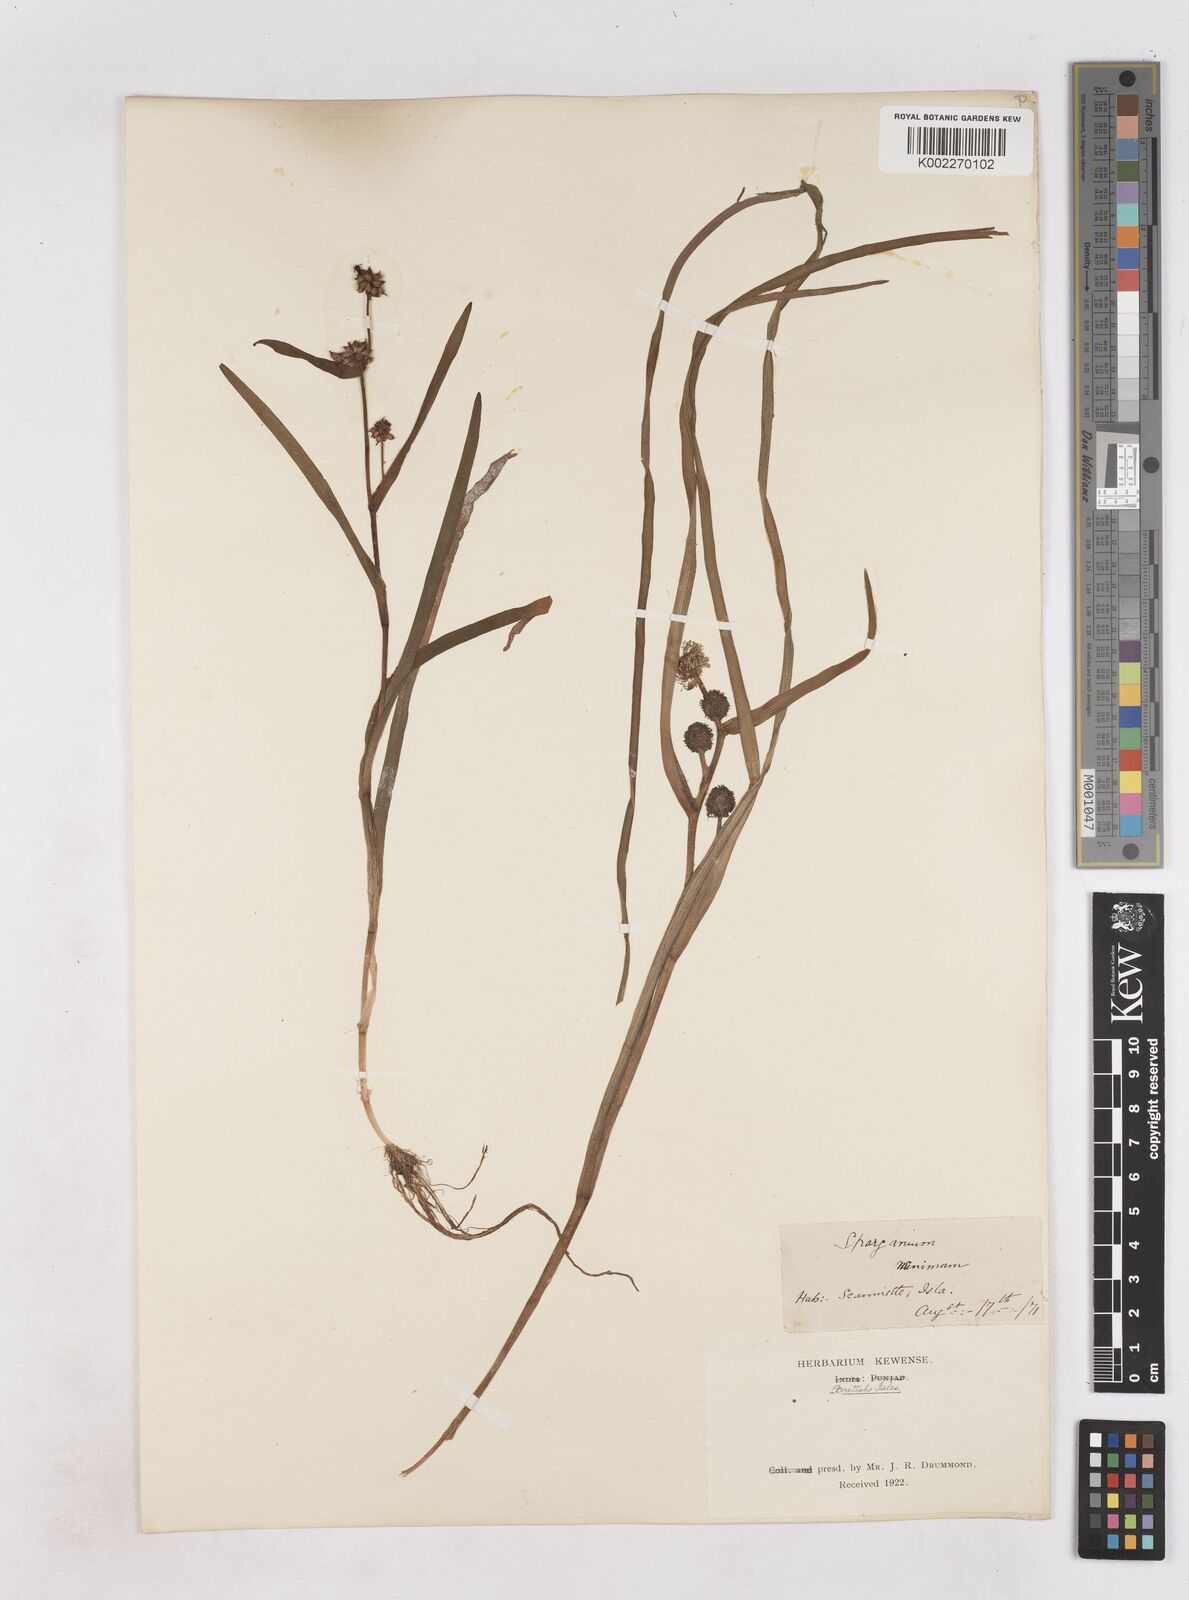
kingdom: Plantae
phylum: Tracheophyta
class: Liliopsida
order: Poales
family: Typhaceae
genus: Sparganium
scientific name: Sparganium natans
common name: Least bur-reed
